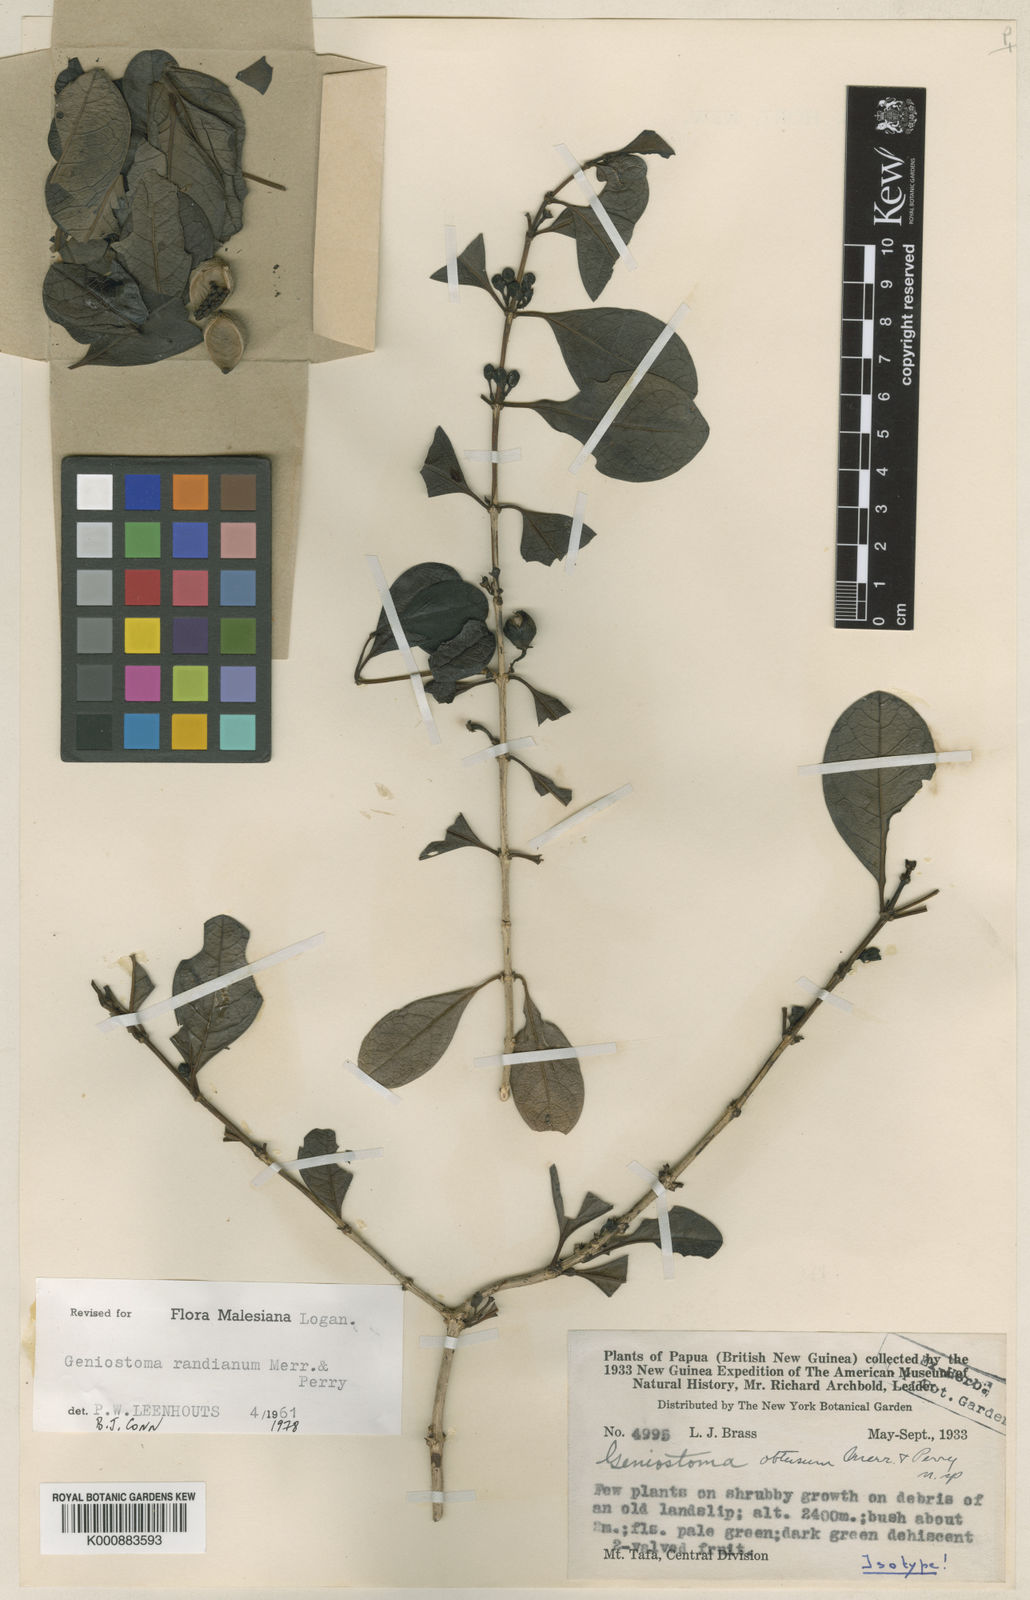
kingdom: Plantae
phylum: Tracheophyta
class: Magnoliopsida
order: Gentianales
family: Loganiaceae
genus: Geniostoma
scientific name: Geniostoma randianum
